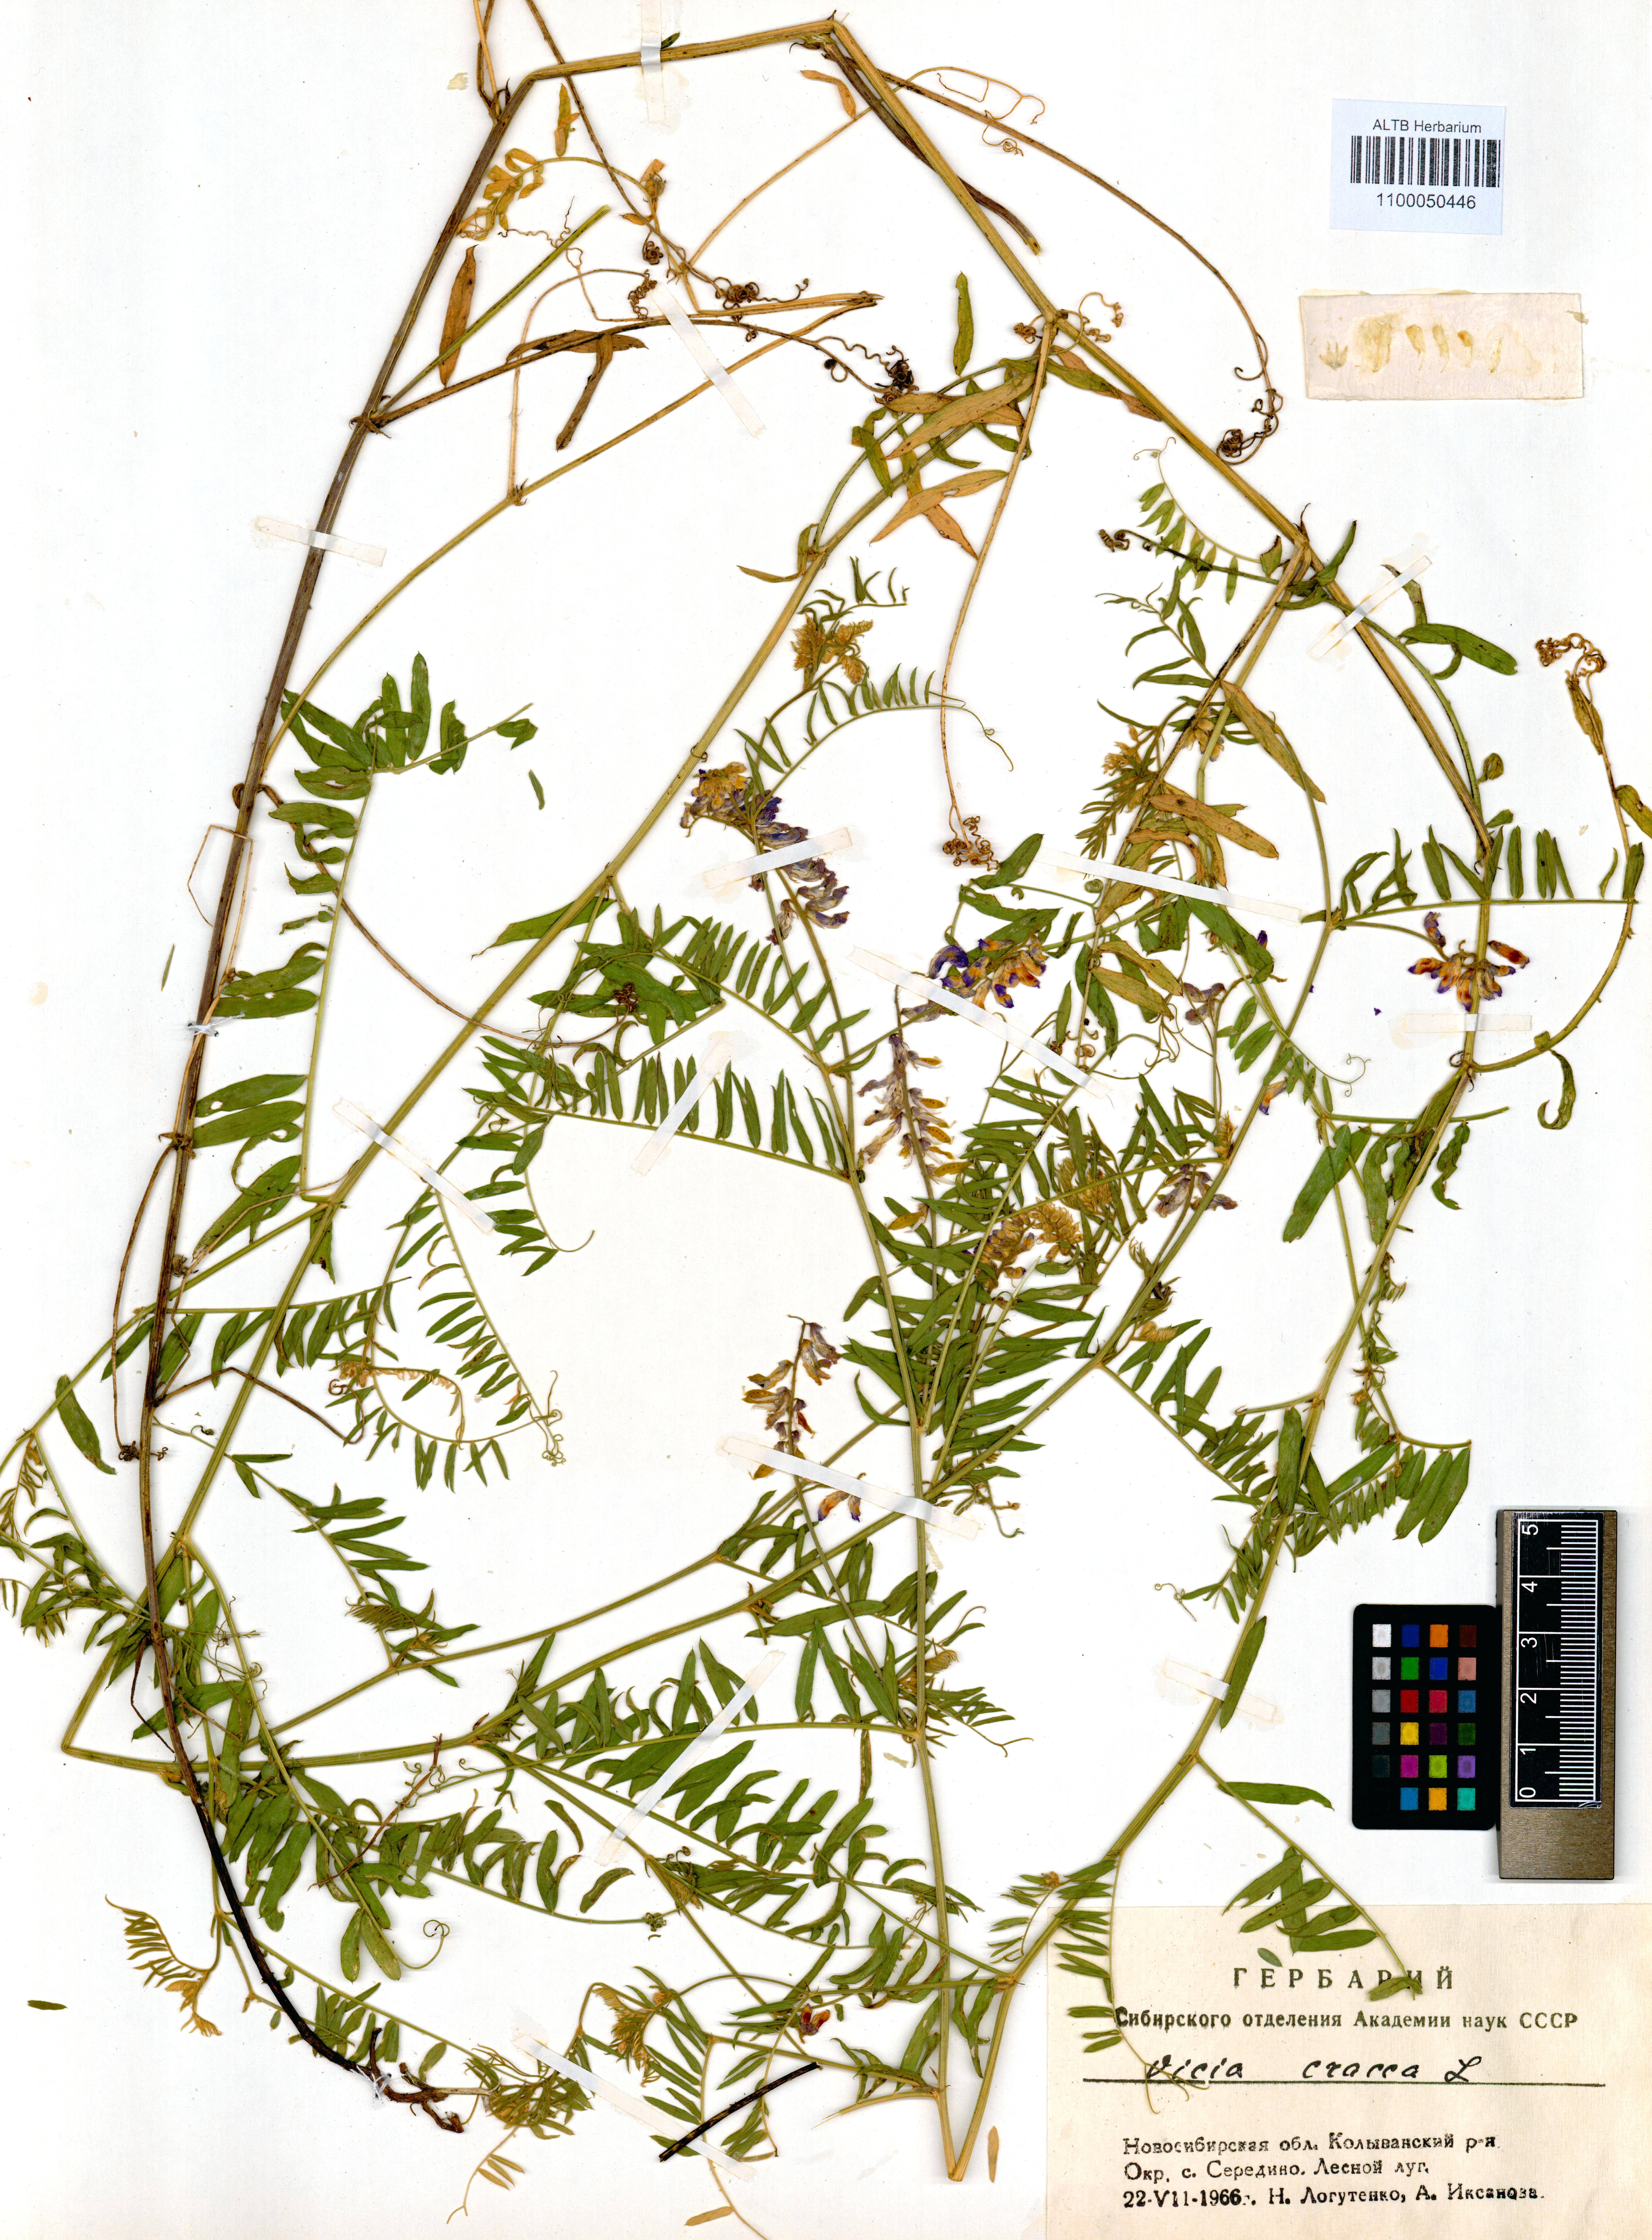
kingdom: Plantae
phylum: Tracheophyta
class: Magnoliopsida
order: Fabales
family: Fabaceae
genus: Vicia
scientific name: Vicia cracca
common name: Bird vetch
